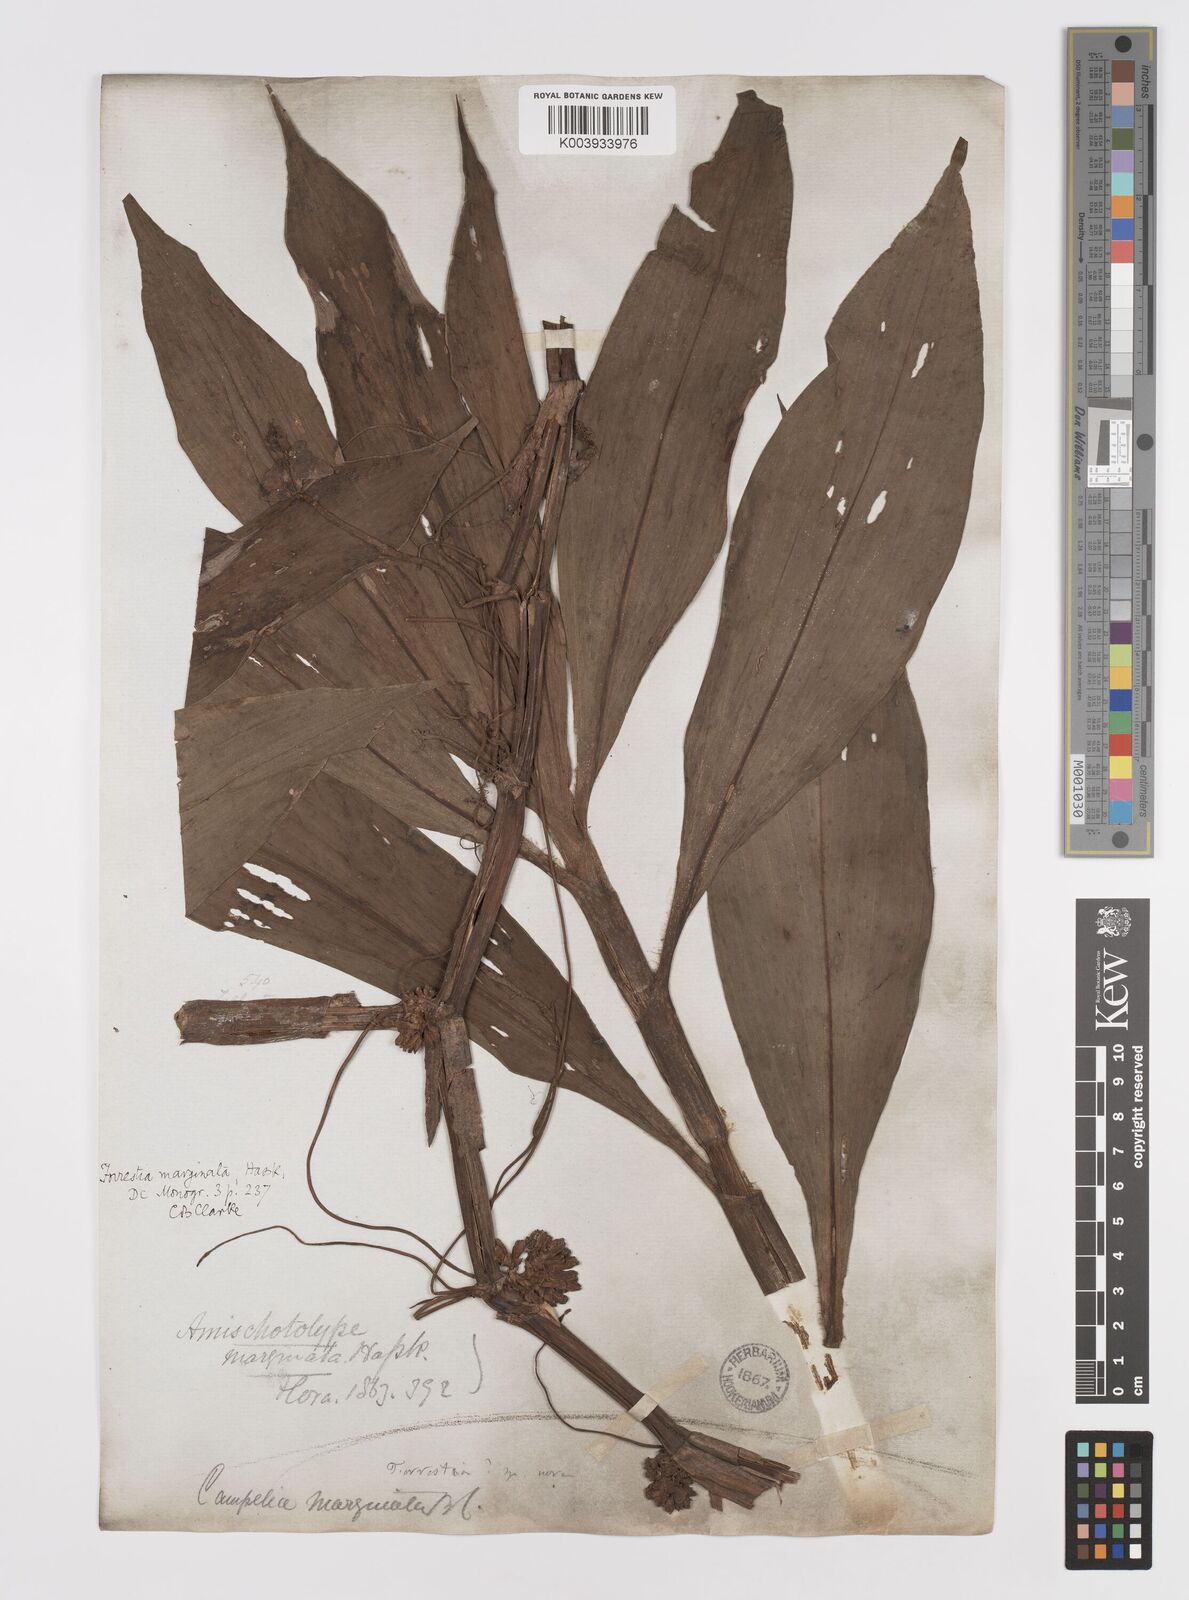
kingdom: Plantae
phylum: Tracheophyta
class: Liliopsida
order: Commelinales
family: Commelinaceae
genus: Amischotolype
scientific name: Amischotolype marginata
